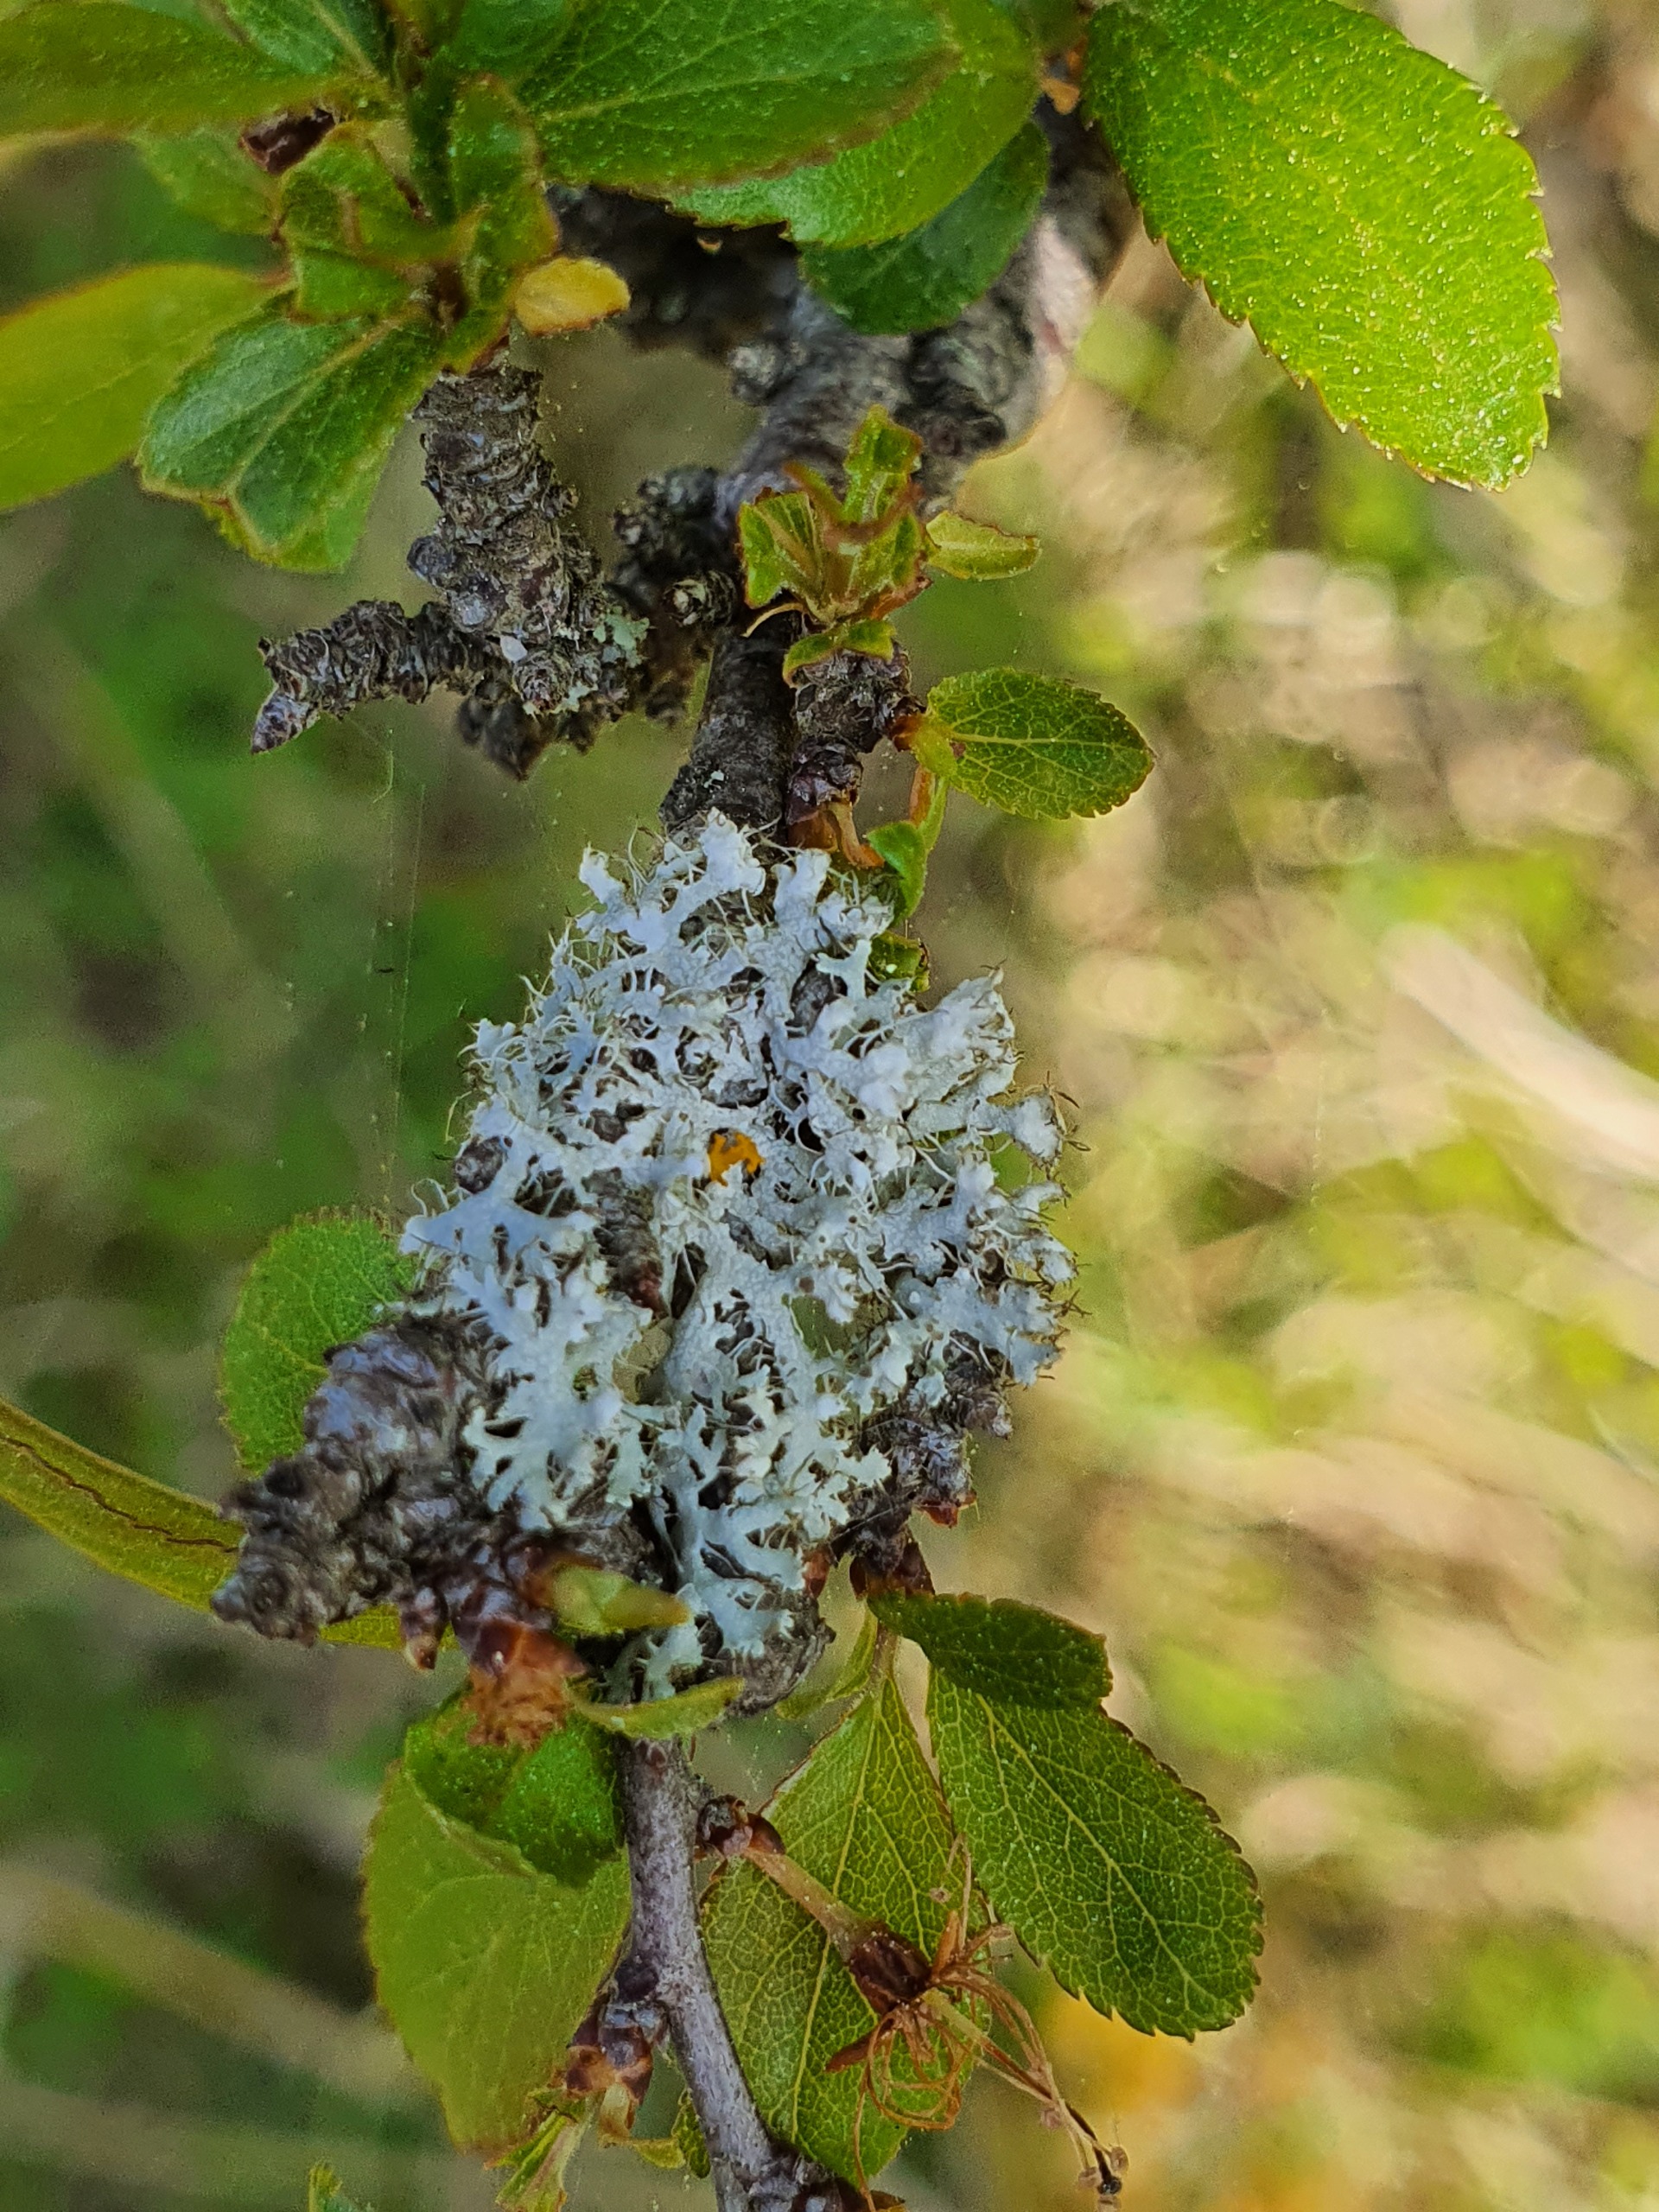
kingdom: Fungi
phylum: Ascomycota
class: Lecanoromycetes
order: Caliciales
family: Physciaceae
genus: Physcia
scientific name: Physcia adscendens
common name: Hætte-rosetlav
